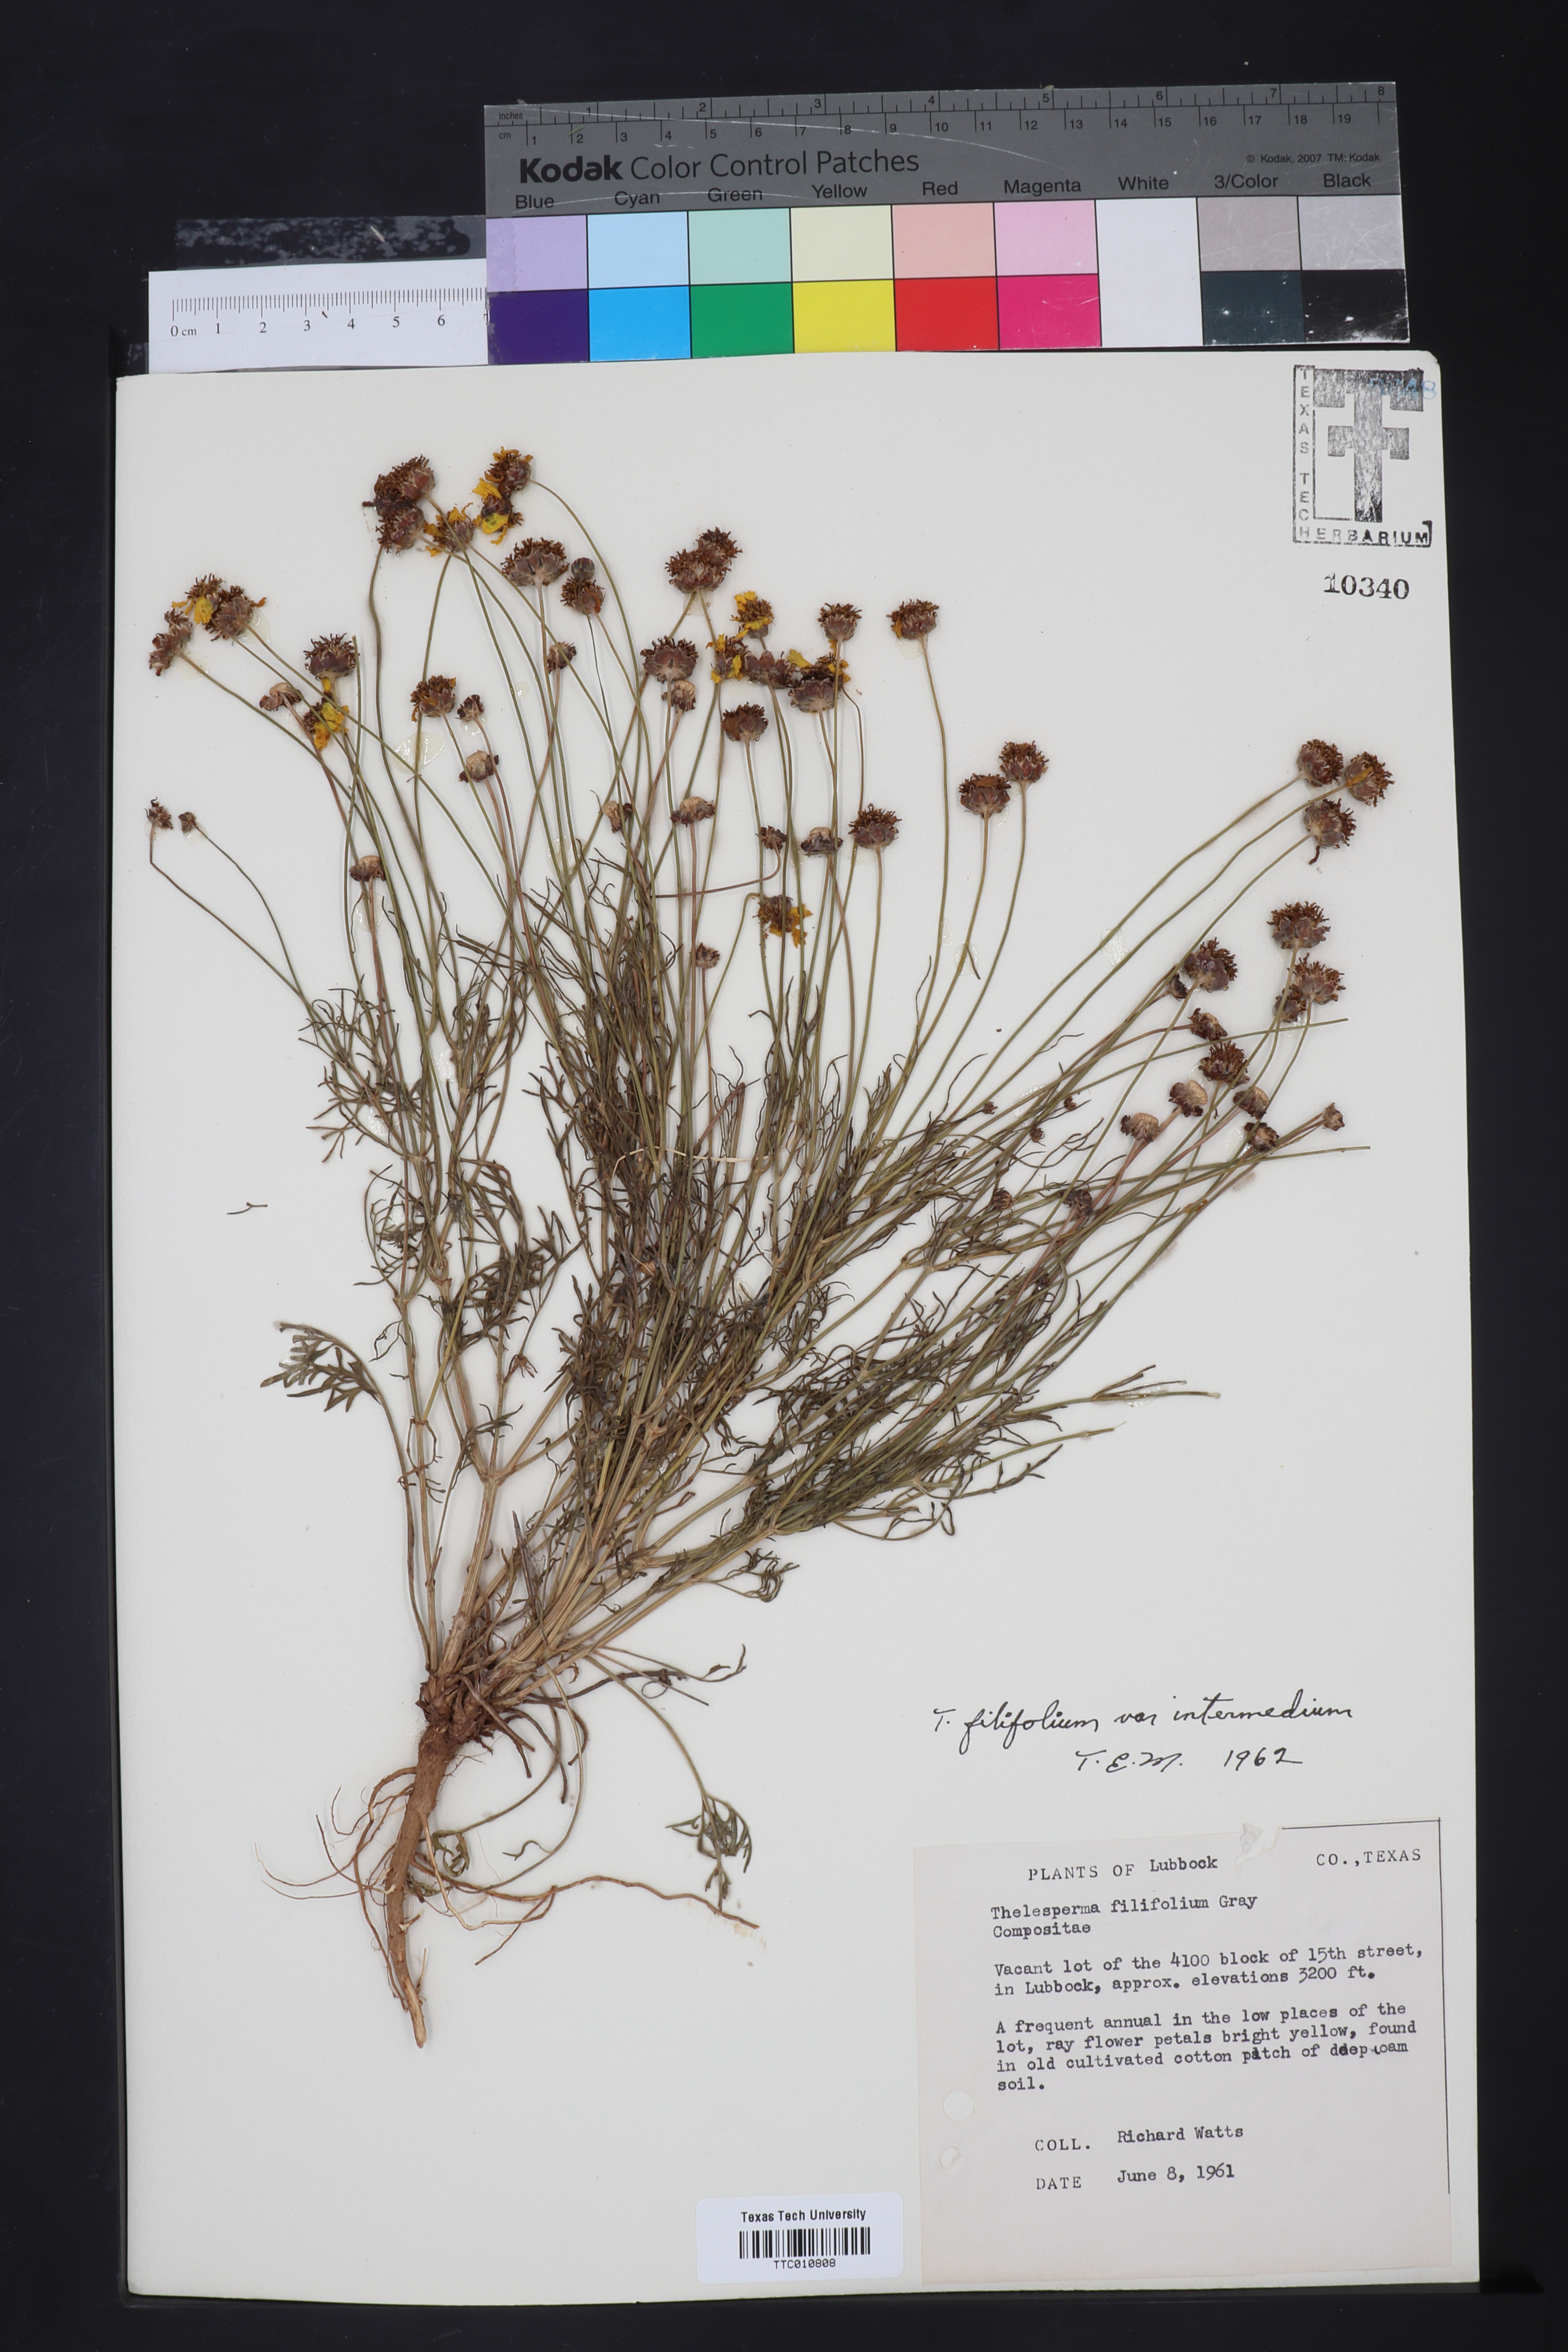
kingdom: Plantae
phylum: Tracheophyta
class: Magnoliopsida
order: Asterales
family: Asteraceae
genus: Thelesperma
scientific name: Thelesperma filifolium
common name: Stiff greenthread
